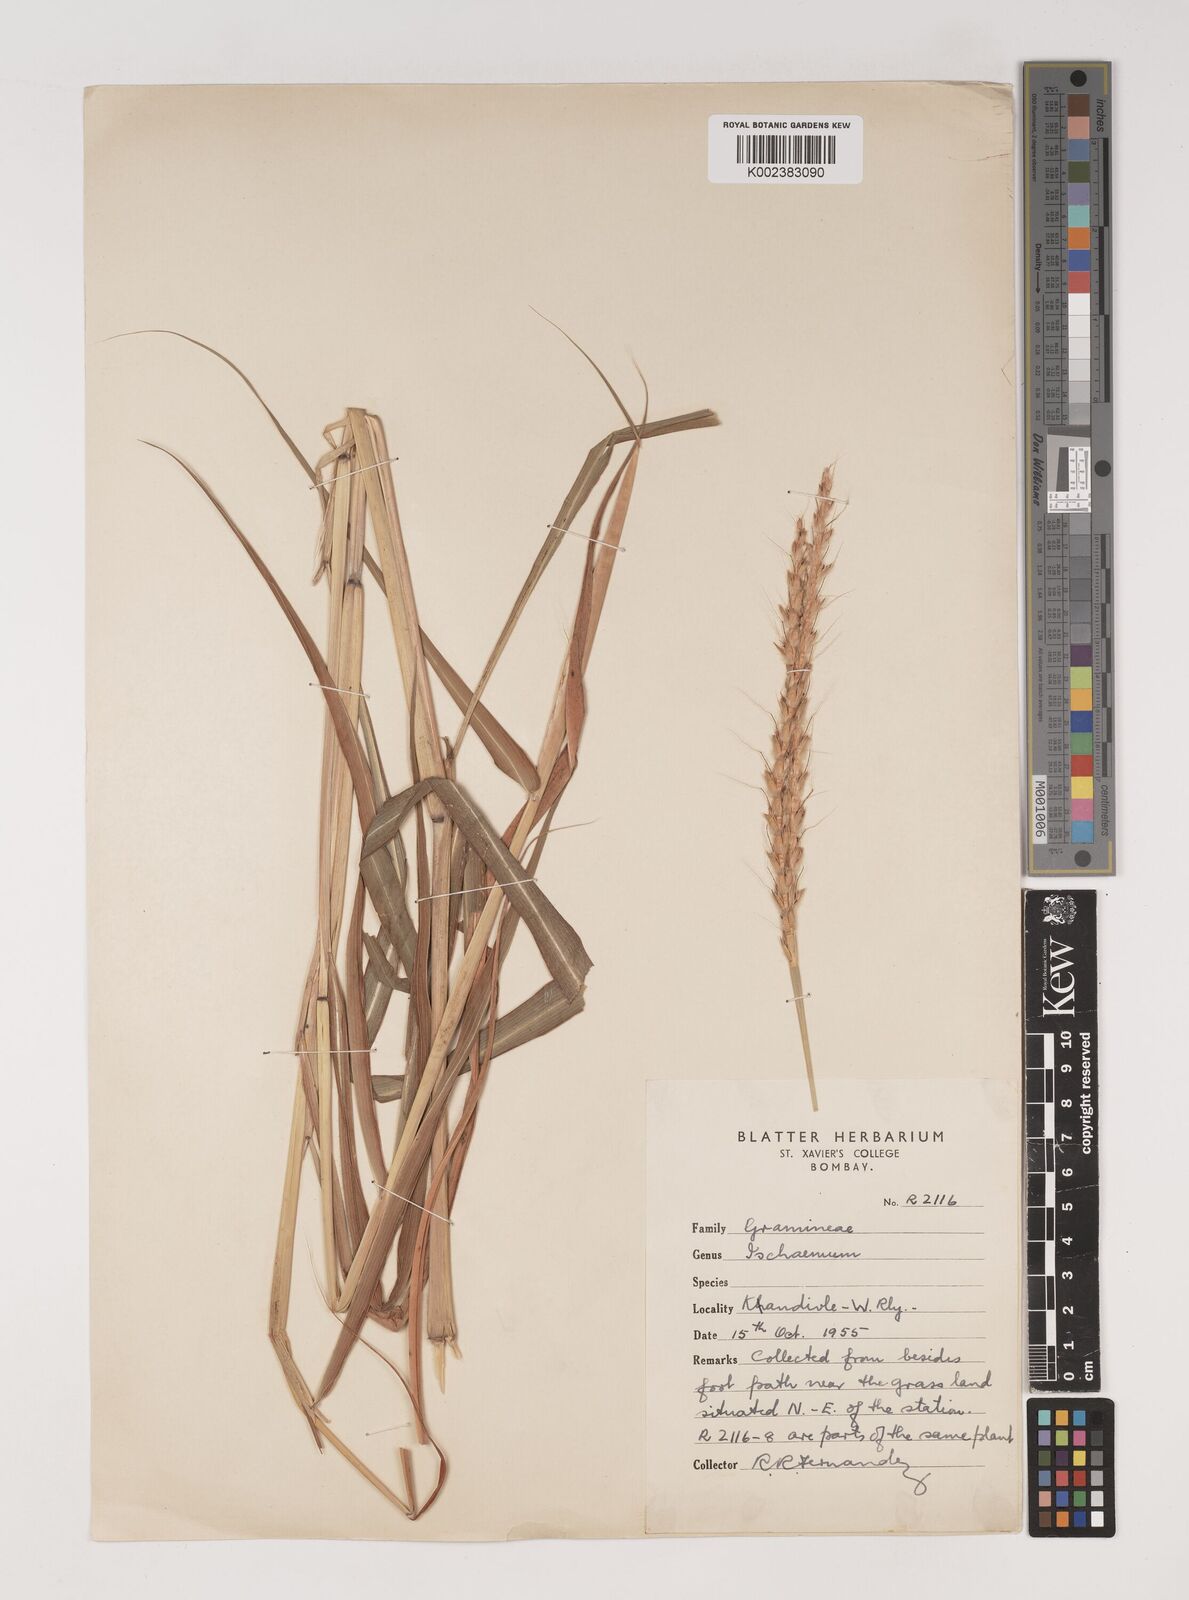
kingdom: Plantae
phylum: Tracheophyta
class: Liliopsida
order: Poales
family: Poaceae
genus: Ischaemum
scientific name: Ischaemum molle
